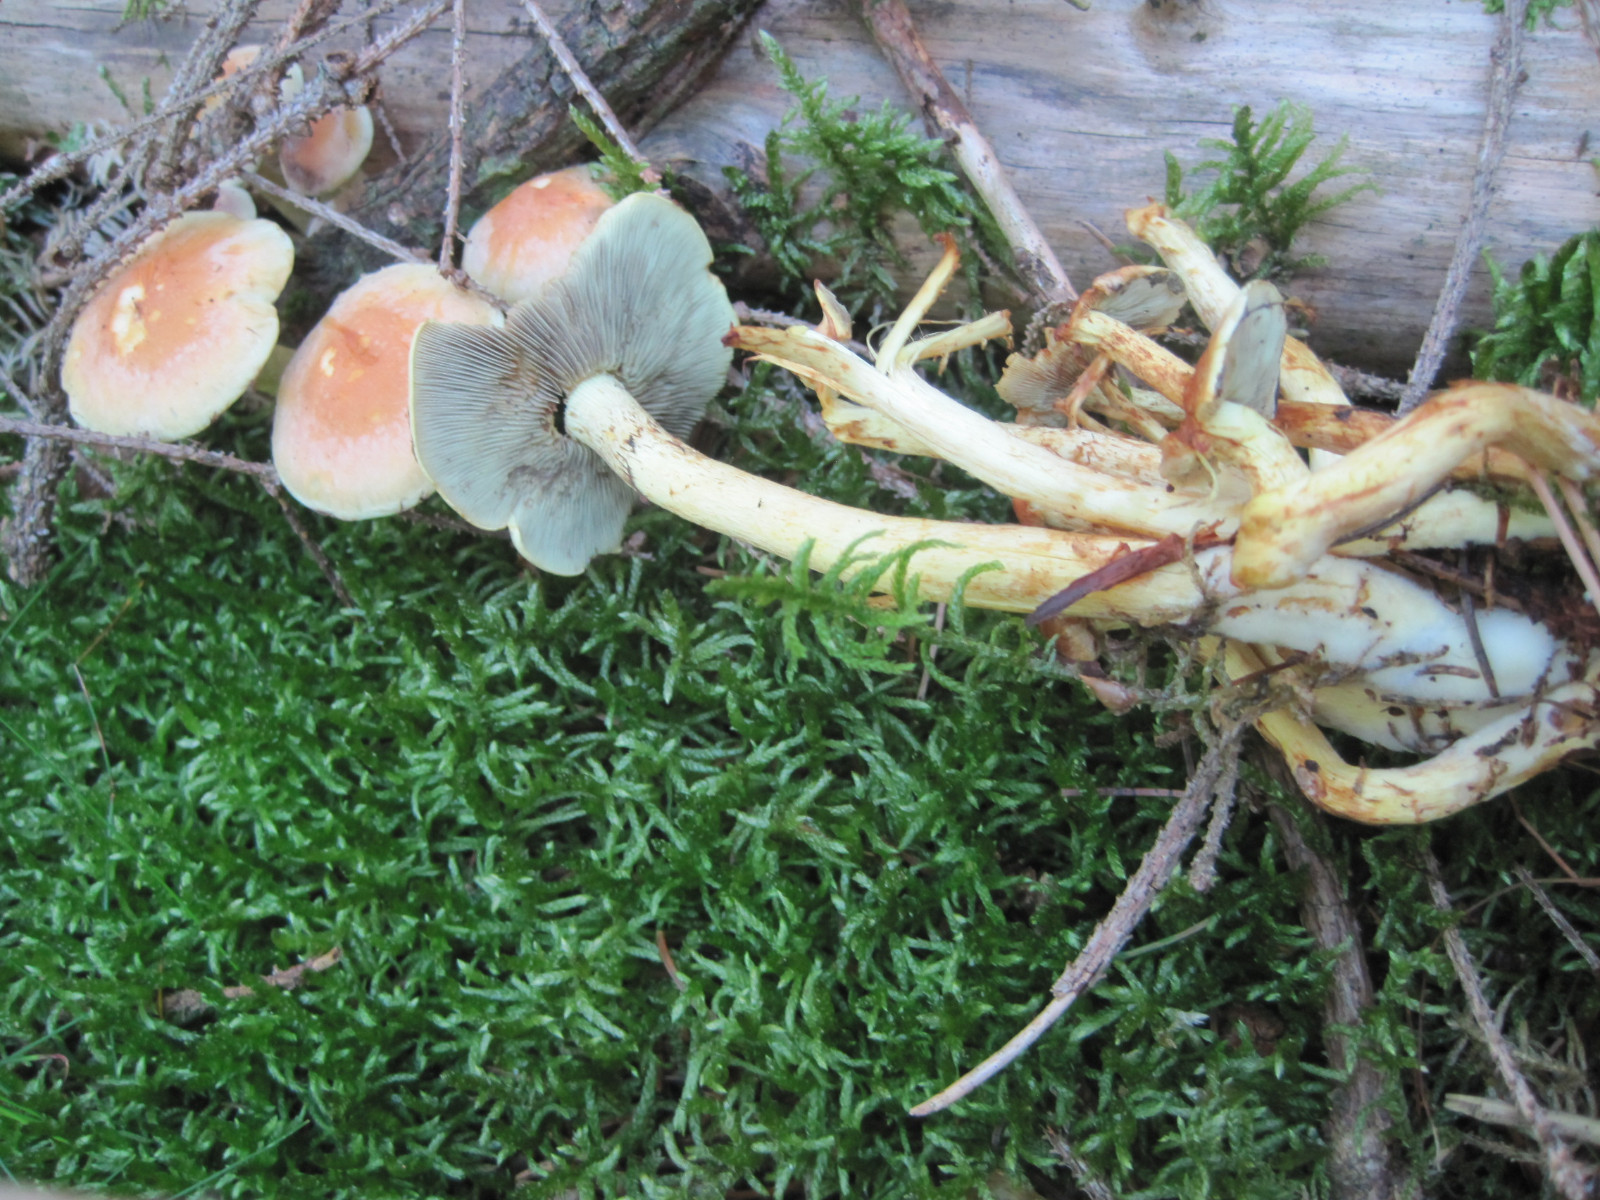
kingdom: Fungi
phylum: Basidiomycota
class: Agaricomycetes
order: Agaricales
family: Strophariaceae
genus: Hypholoma
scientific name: Hypholoma fasciculare
